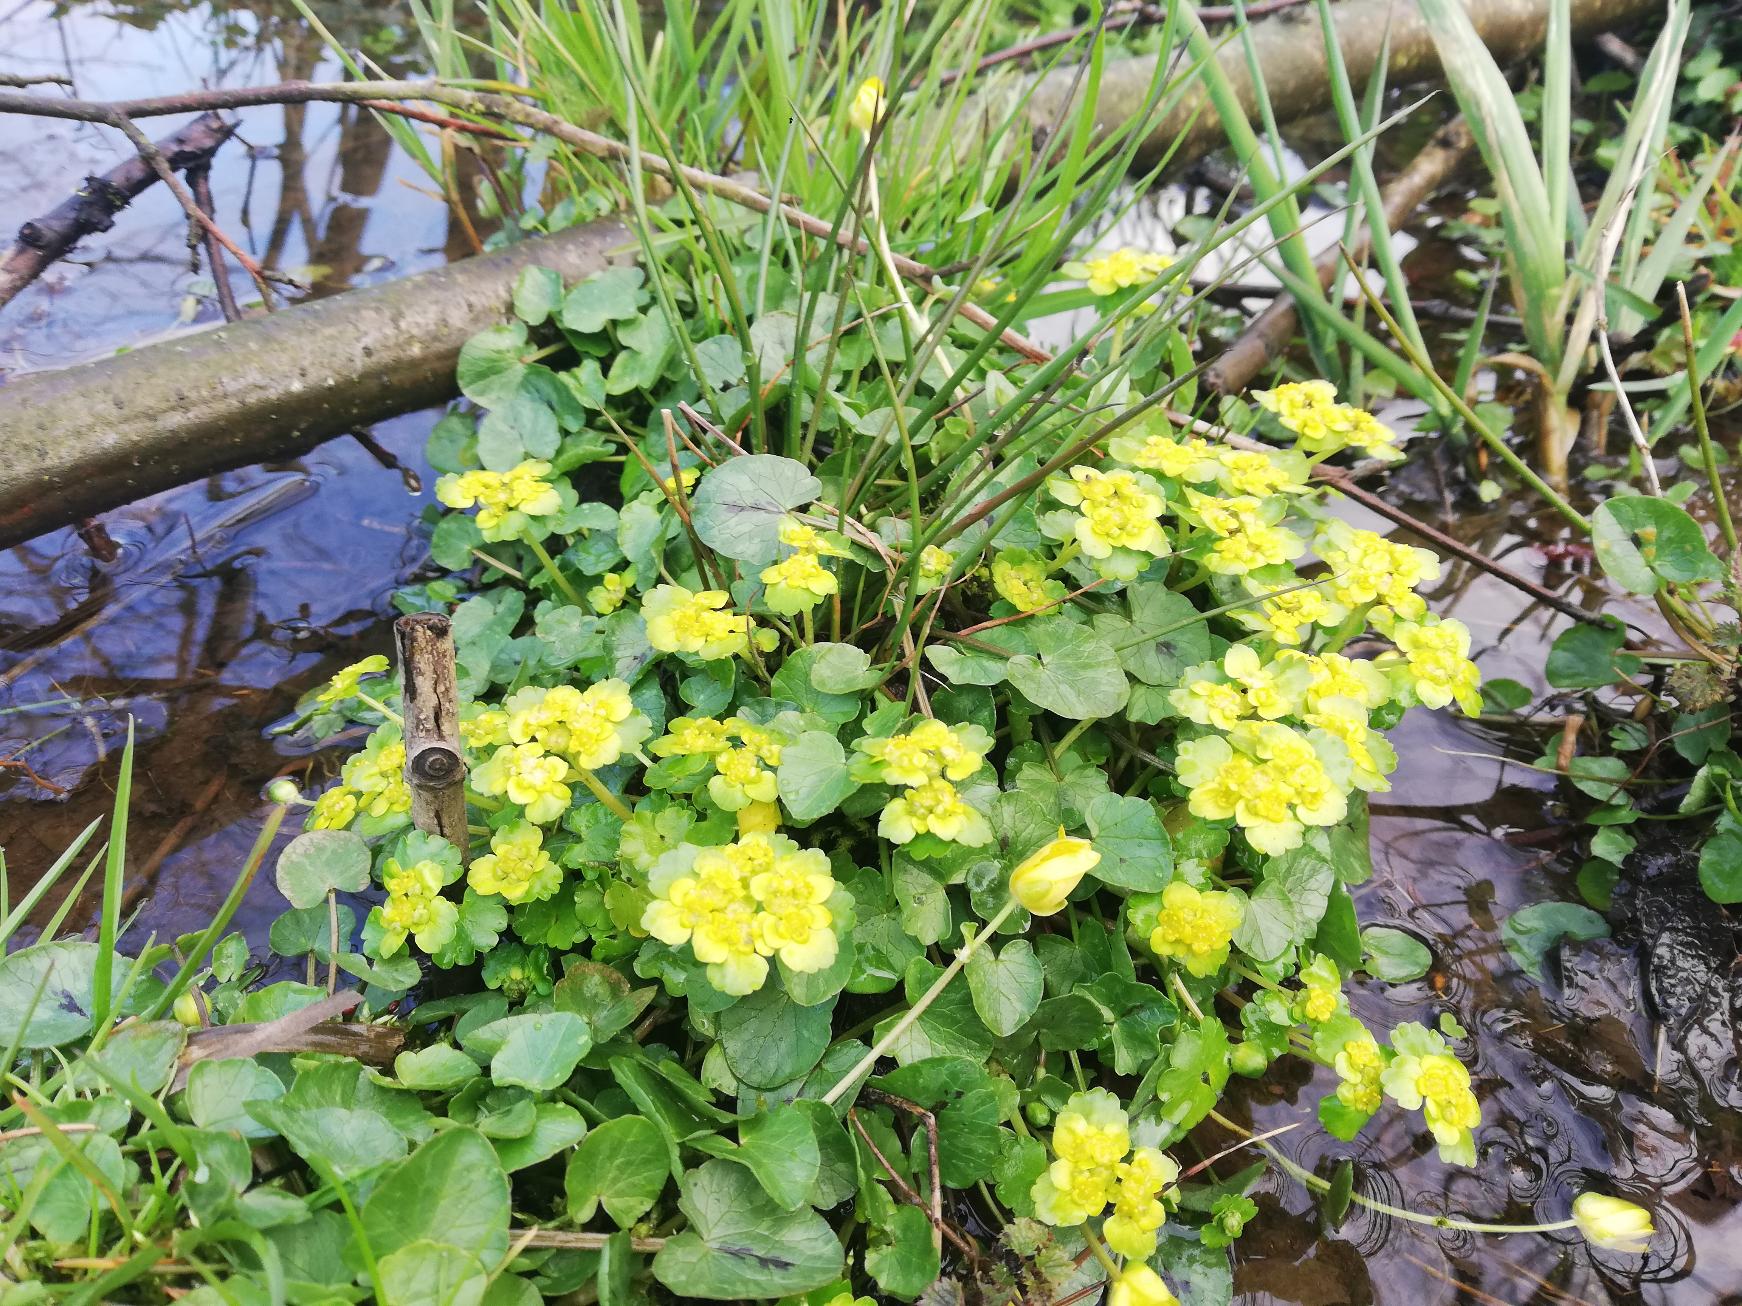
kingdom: Plantae
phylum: Tracheophyta
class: Magnoliopsida
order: Saxifragales
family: Saxifragaceae
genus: Chrysosplenium
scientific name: Chrysosplenium alternifolium
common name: Almindelig milturt
